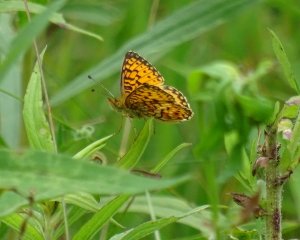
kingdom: Animalia
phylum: Arthropoda
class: Insecta
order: Lepidoptera
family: Nymphalidae
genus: Boloria
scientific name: Boloria selene
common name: Silver-bordered Fritillary
